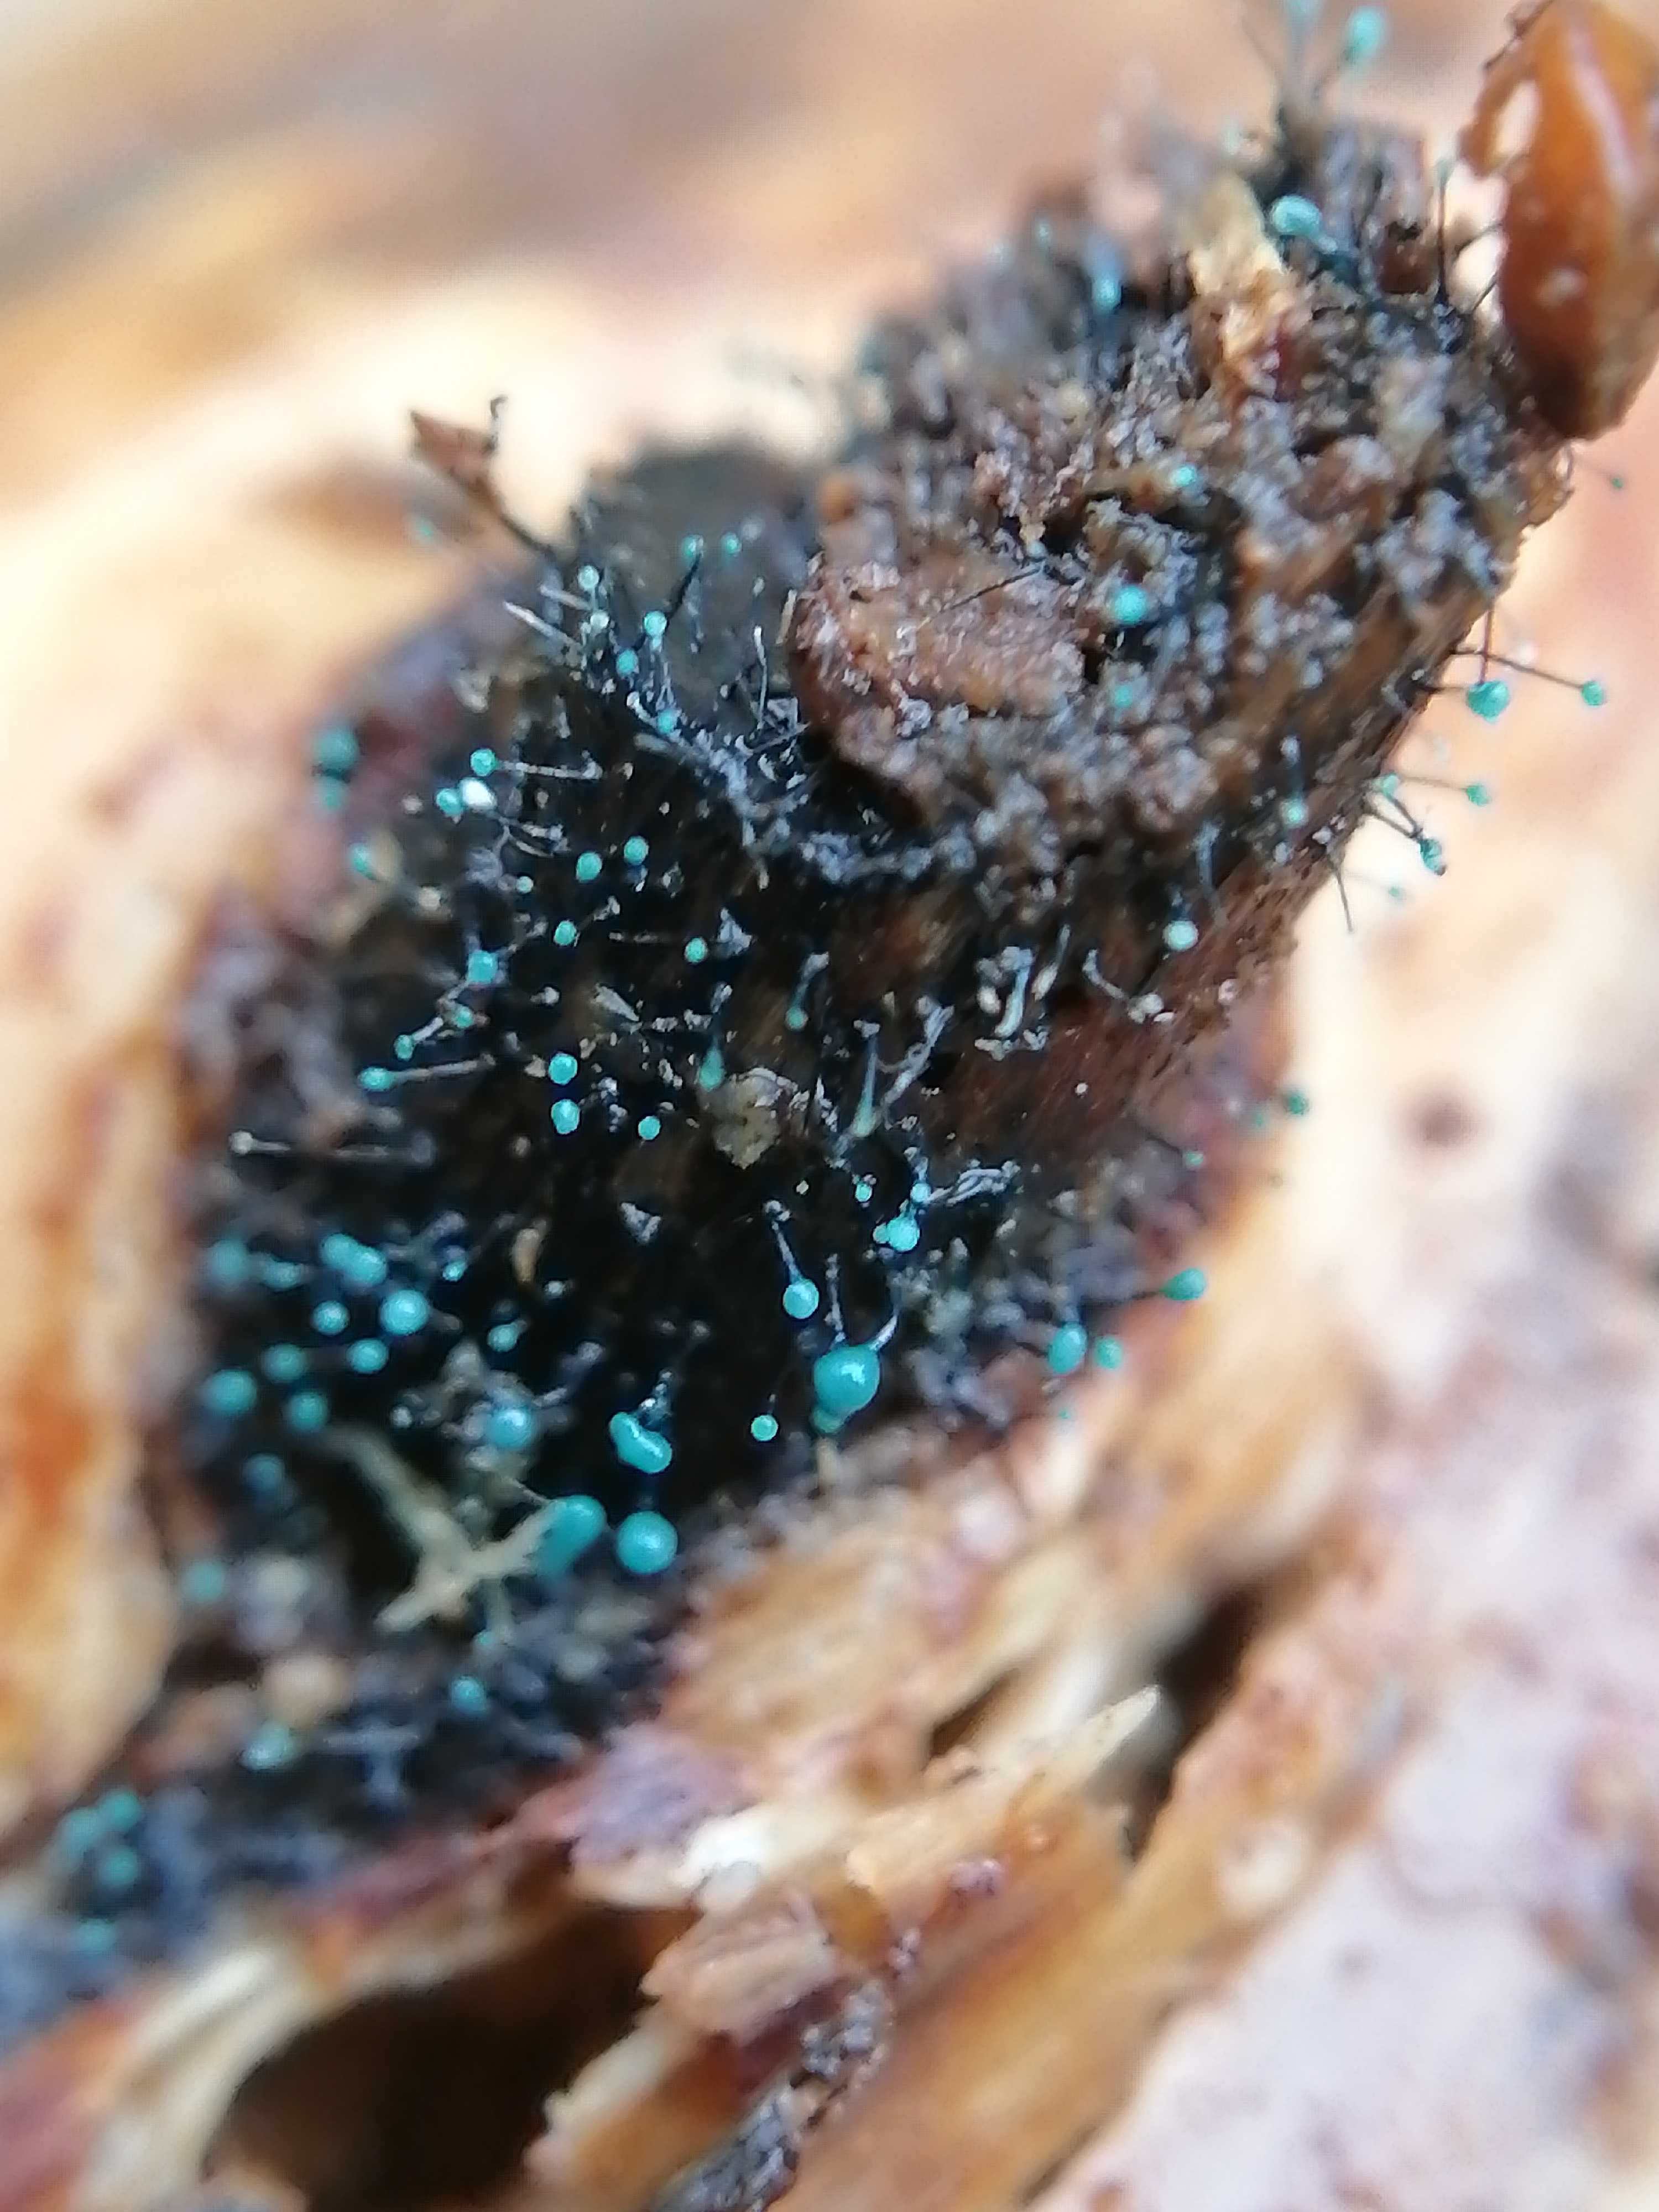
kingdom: Fungi
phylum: Ascomycota
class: Leotiomycetes
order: Leotiales
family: Tympanidaceae
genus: Dendrostilbella
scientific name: Dendrostilbella smaragdina
